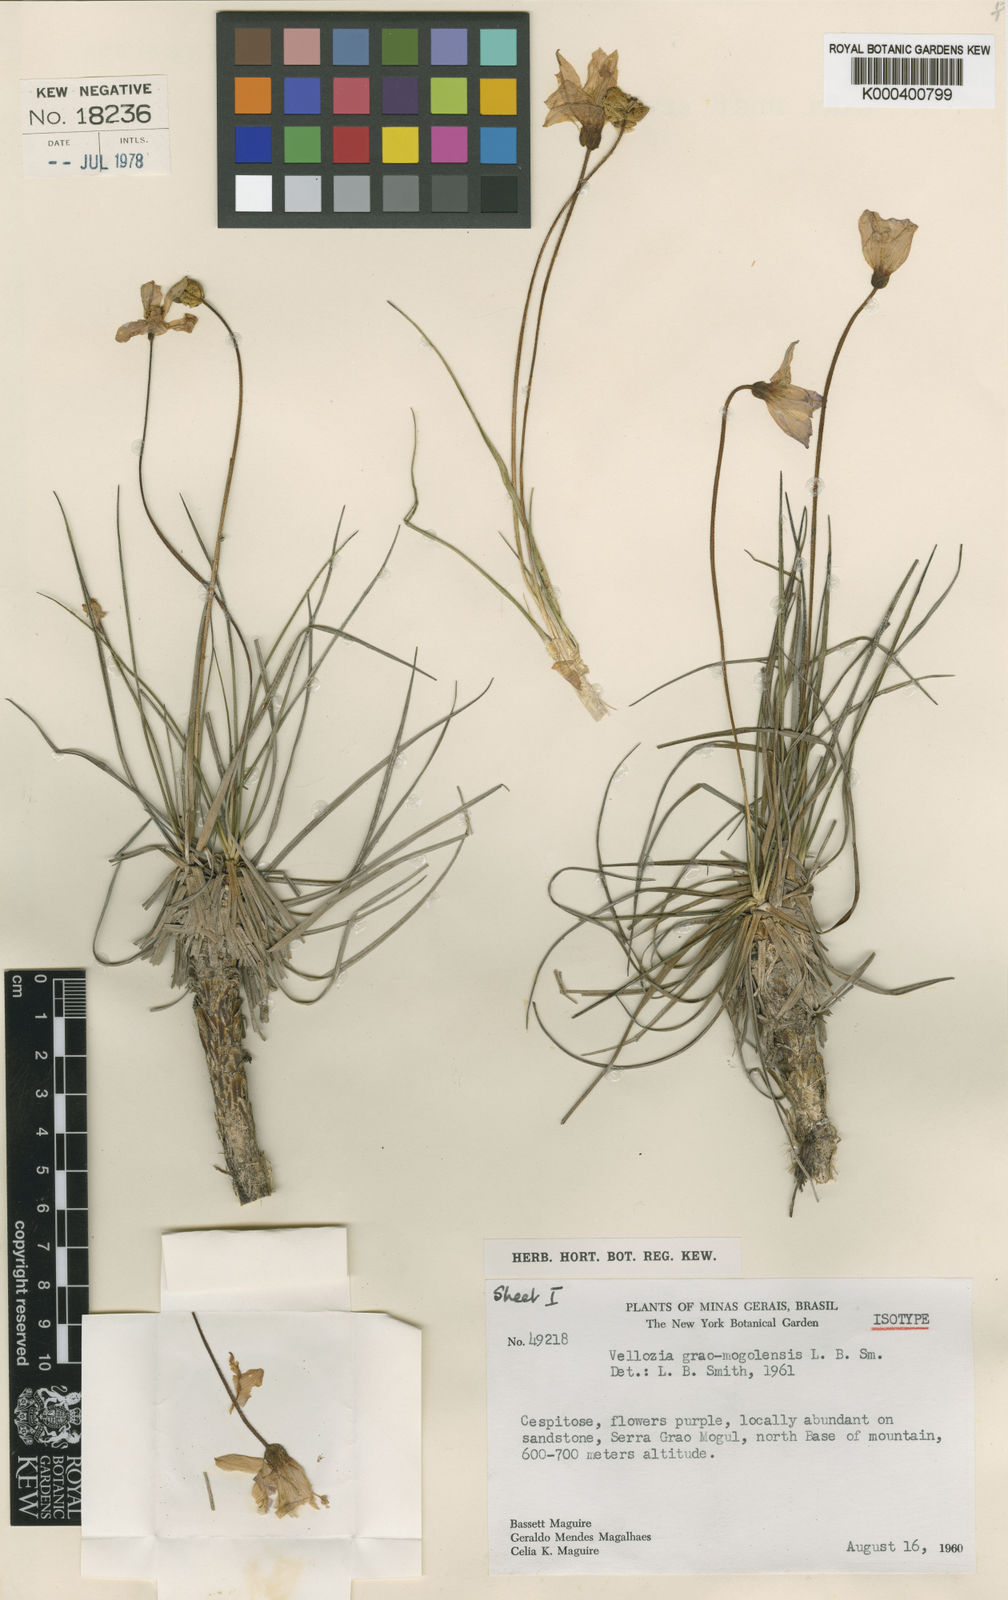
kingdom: Plantae
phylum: Tracheophyta
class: Liliopsida
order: Pandanales
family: Velloziaceae
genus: Vellozia
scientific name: Vellozia grao-mogulensis
